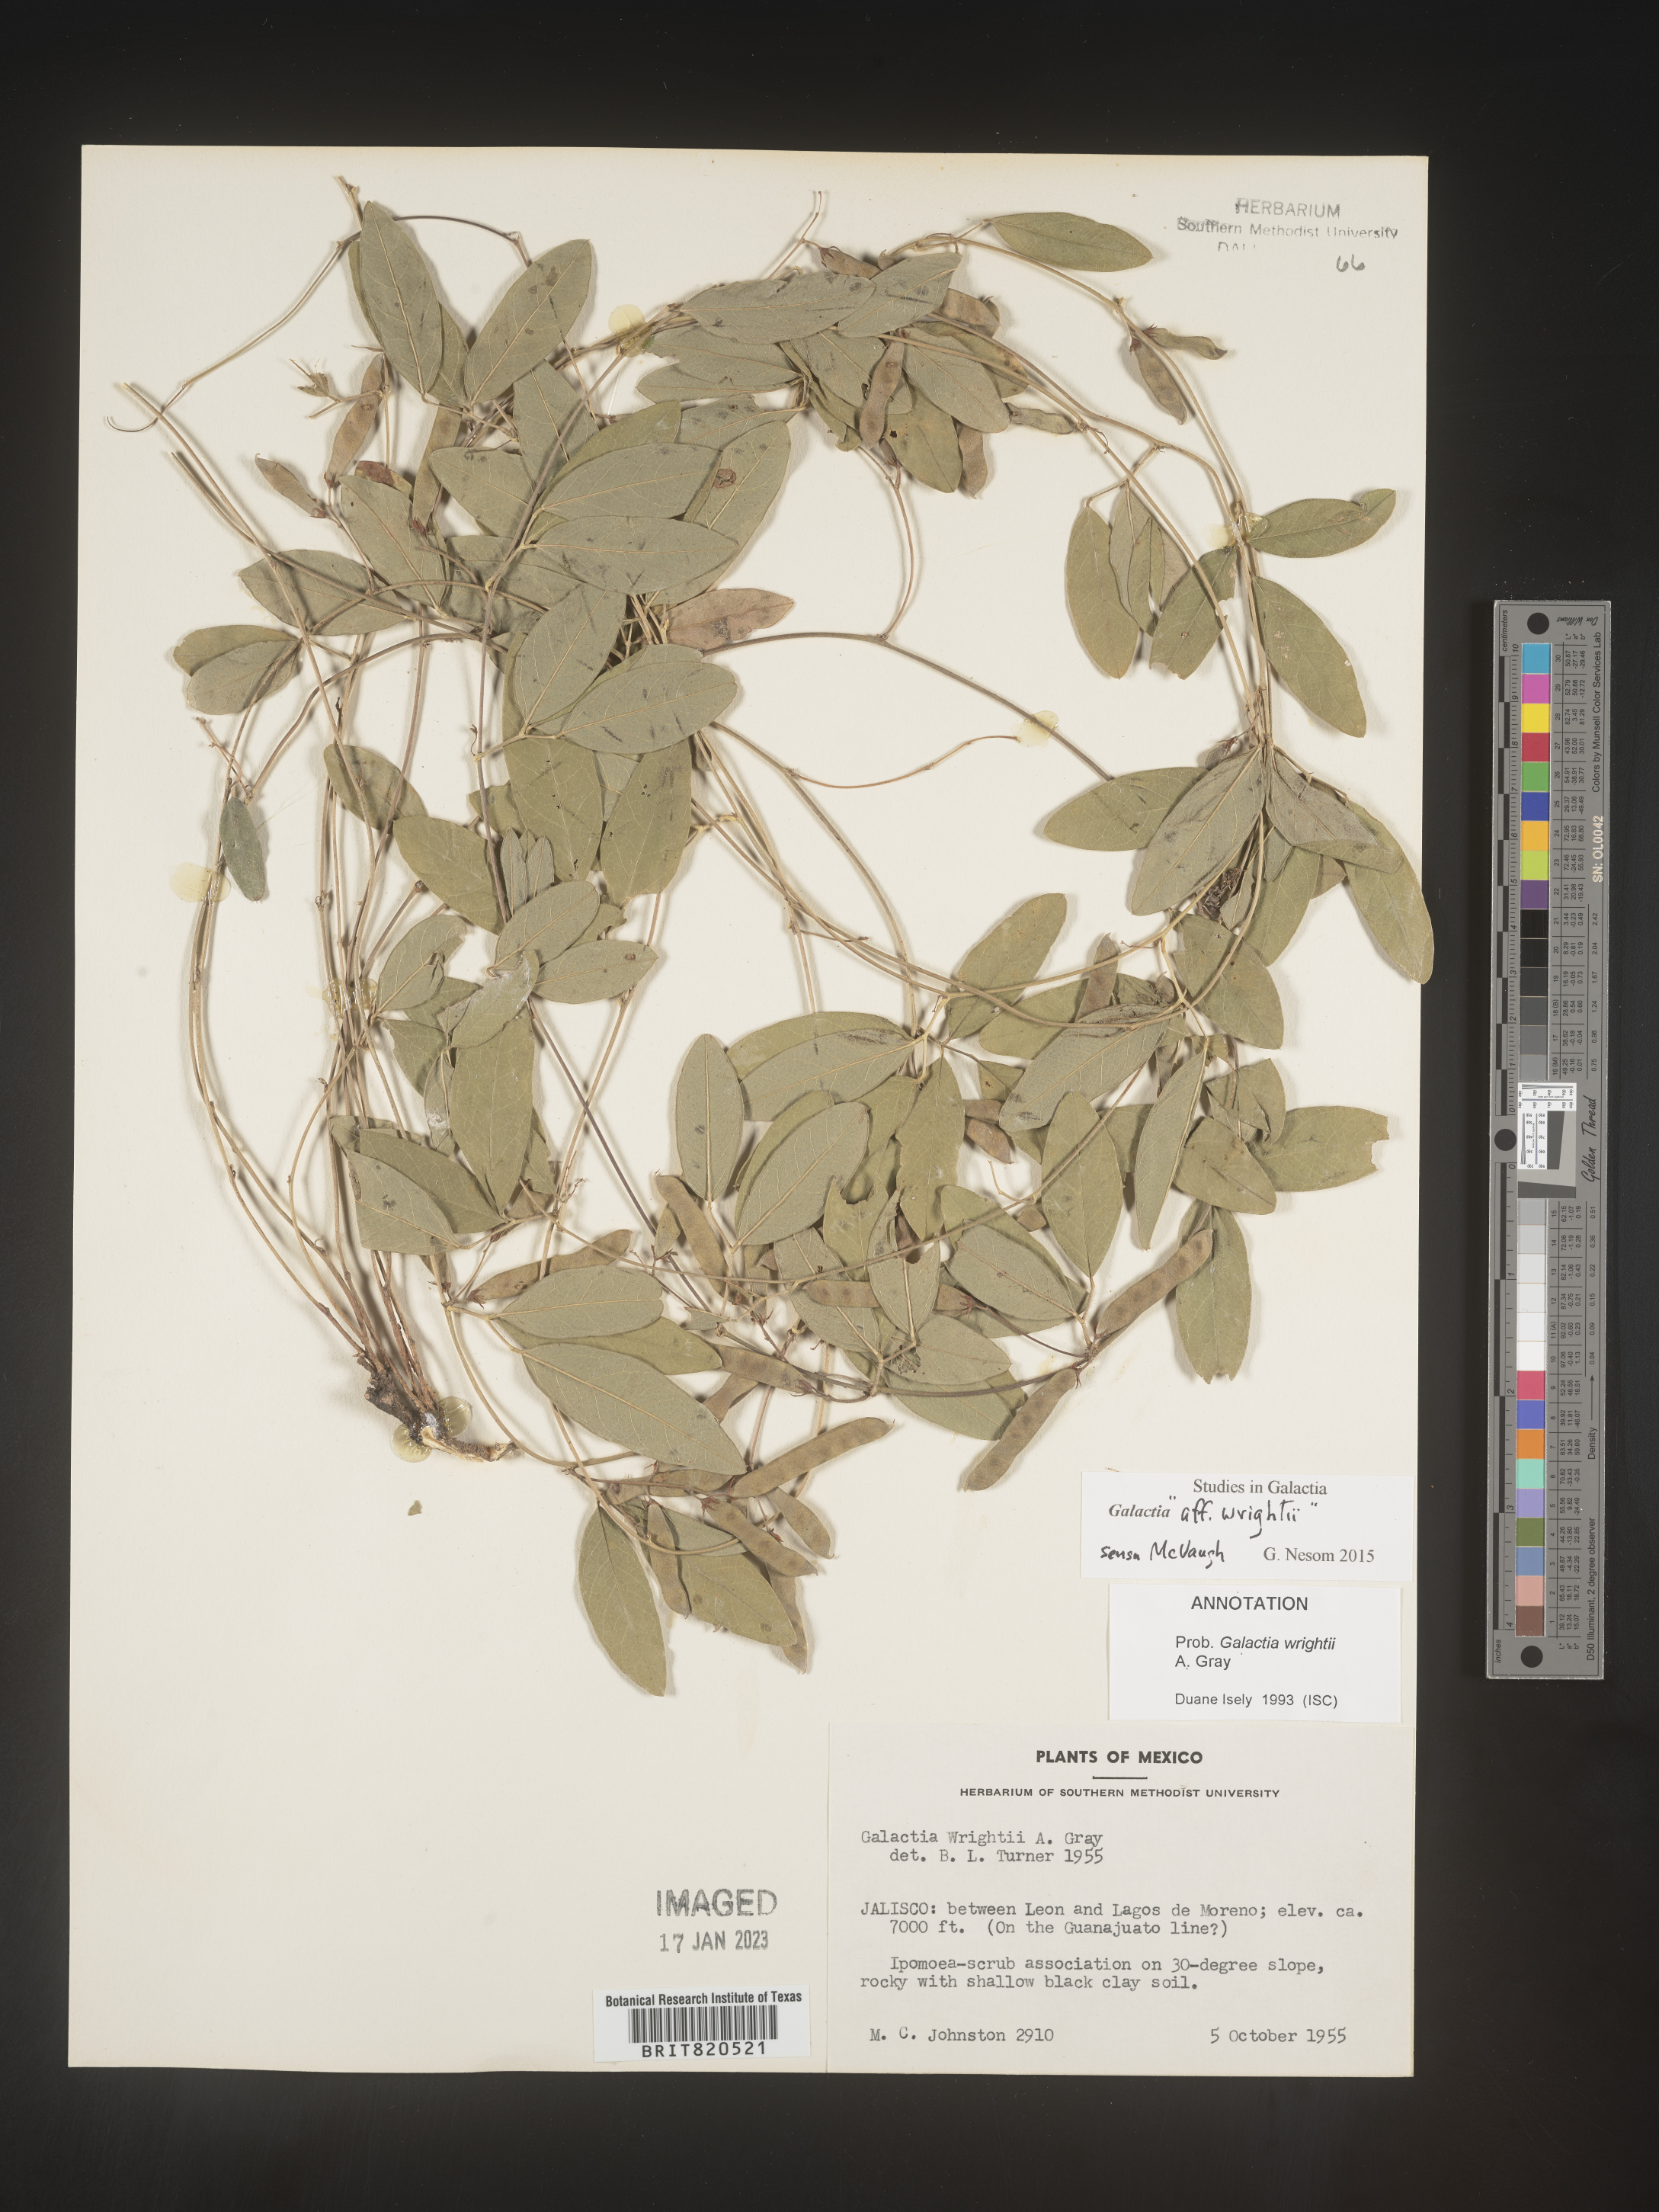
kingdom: Plantae
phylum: Tracheophyta
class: Magnoliopsida
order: Fabales
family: Fabaceae
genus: Galactia
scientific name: Galactia wrightii
